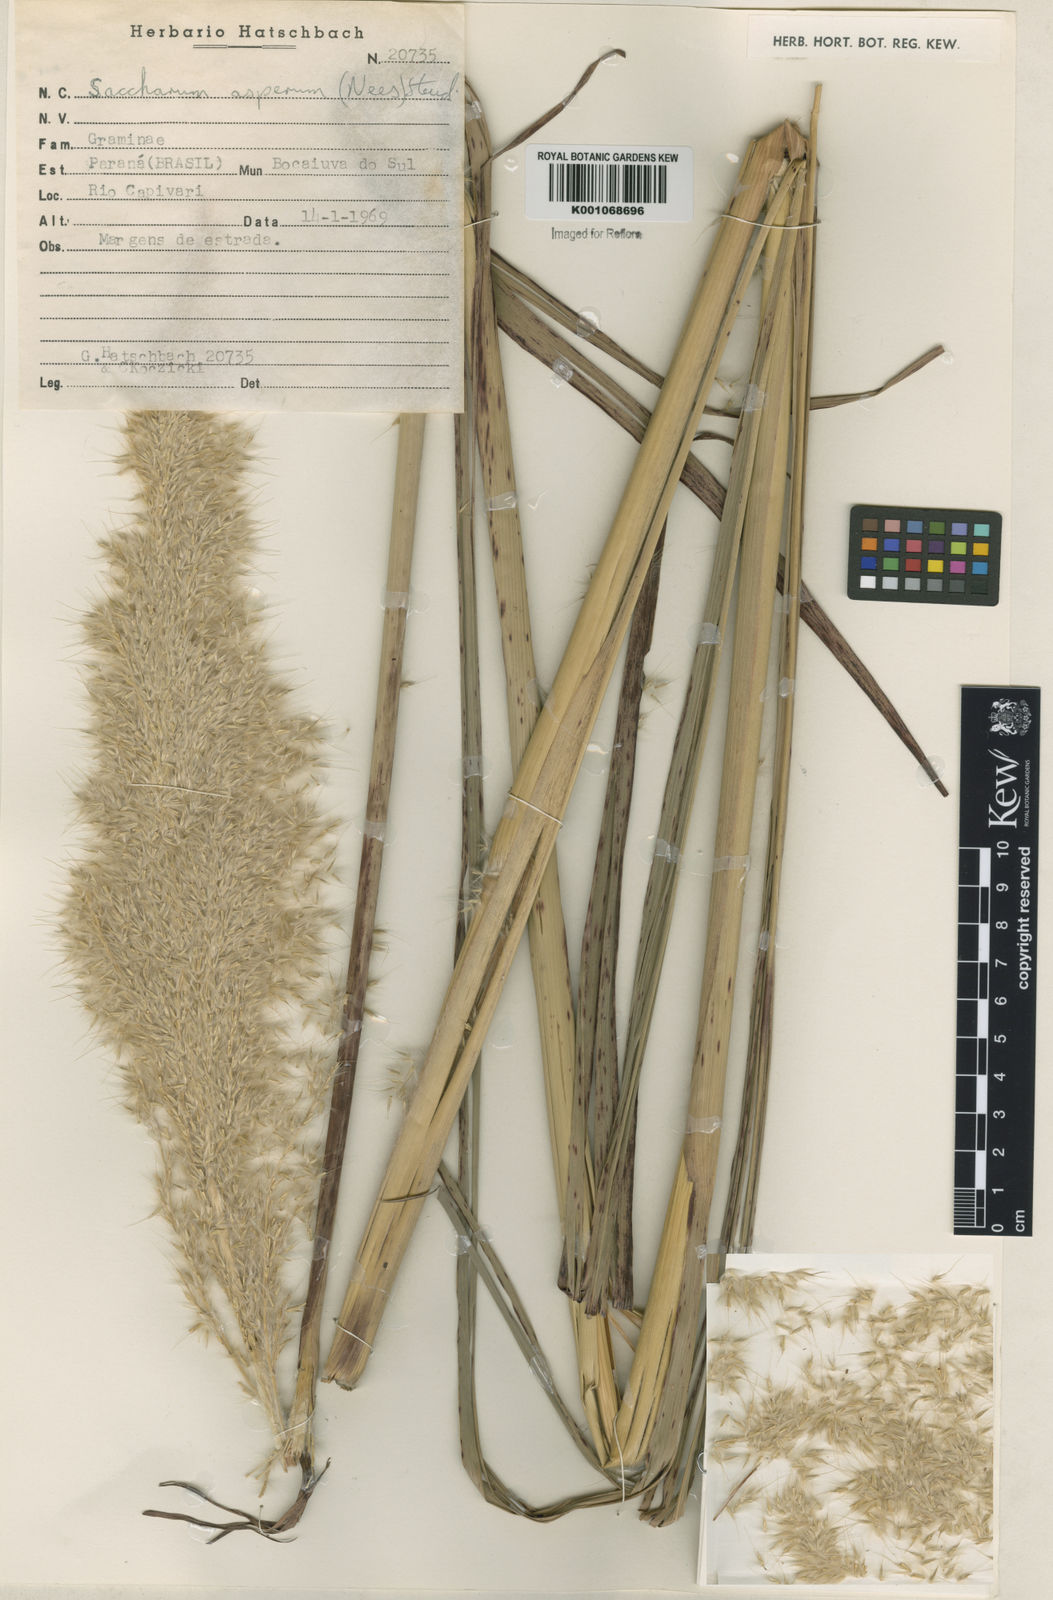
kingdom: Plantae
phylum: Tracheophyta
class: Liliopsida
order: Poales
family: Poaceae
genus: Erianthus
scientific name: Erianthus asper
